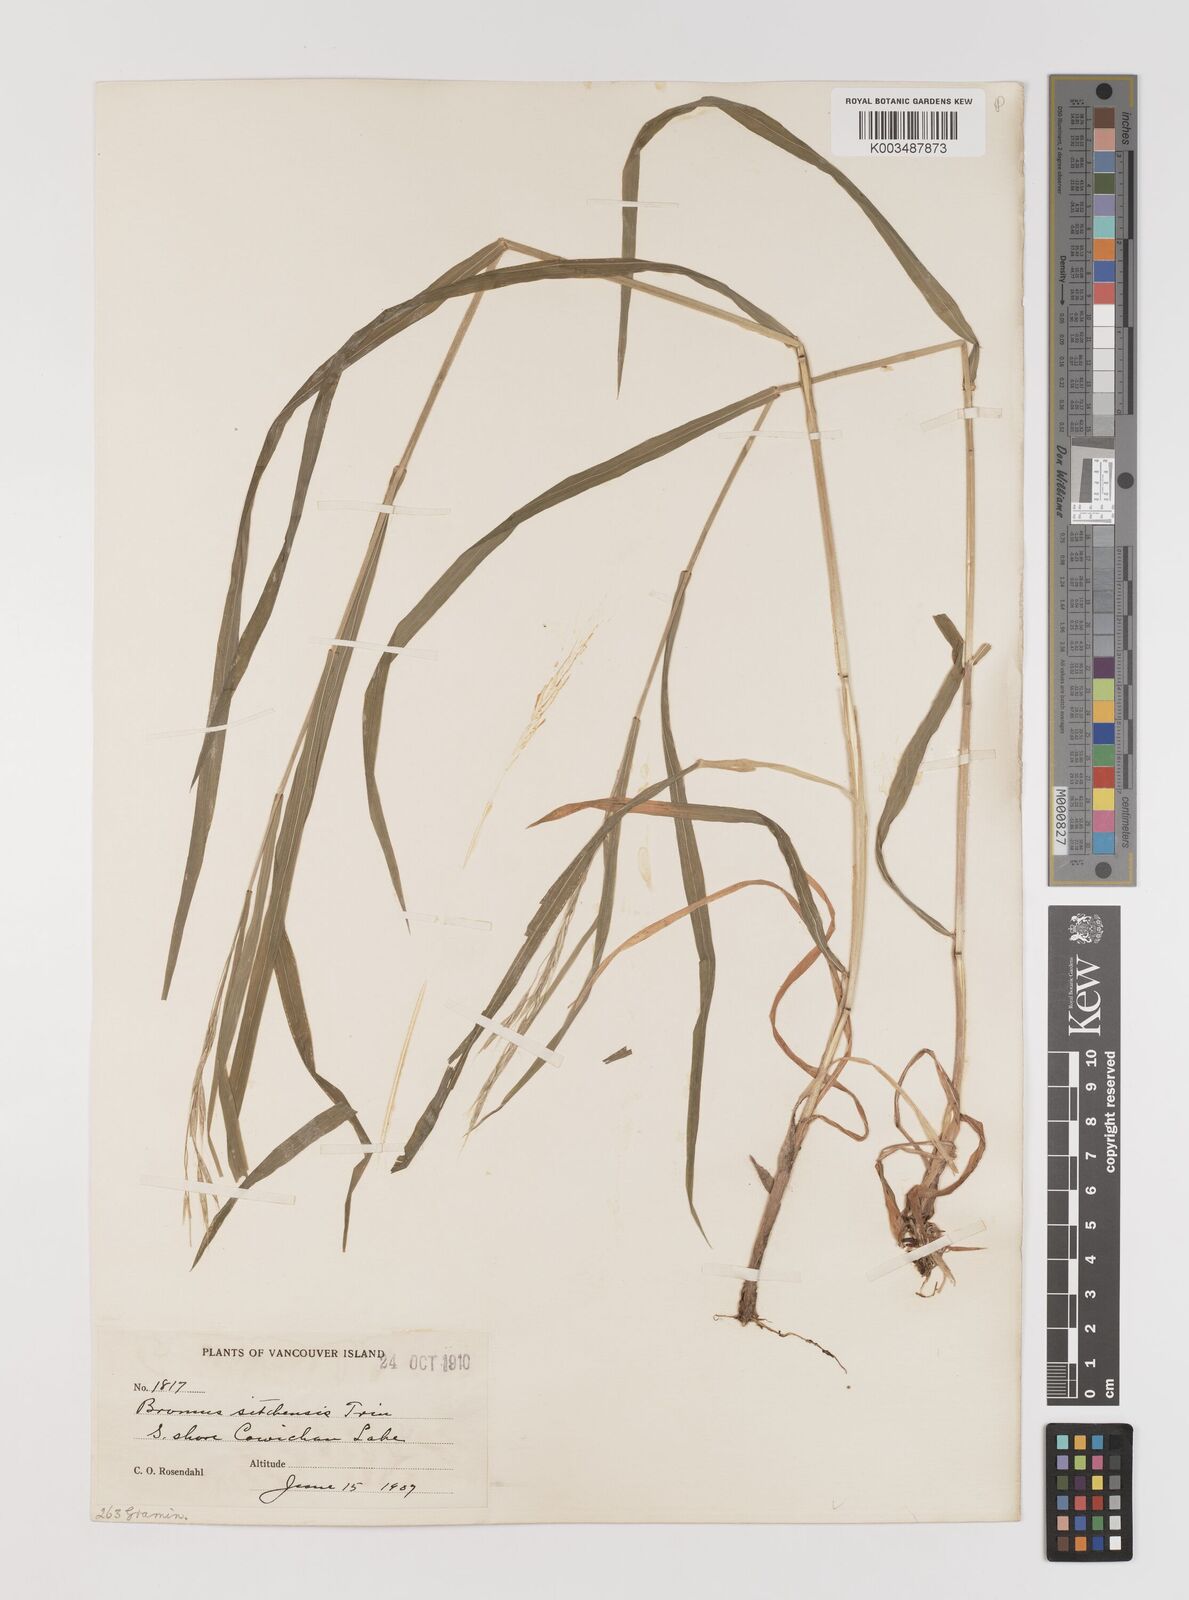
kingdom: Plantae
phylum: Tracheophyta
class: Liliopsida
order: Poales
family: Poaceae
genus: Bromus
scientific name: Bromus sitchensis
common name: Sitka brome
